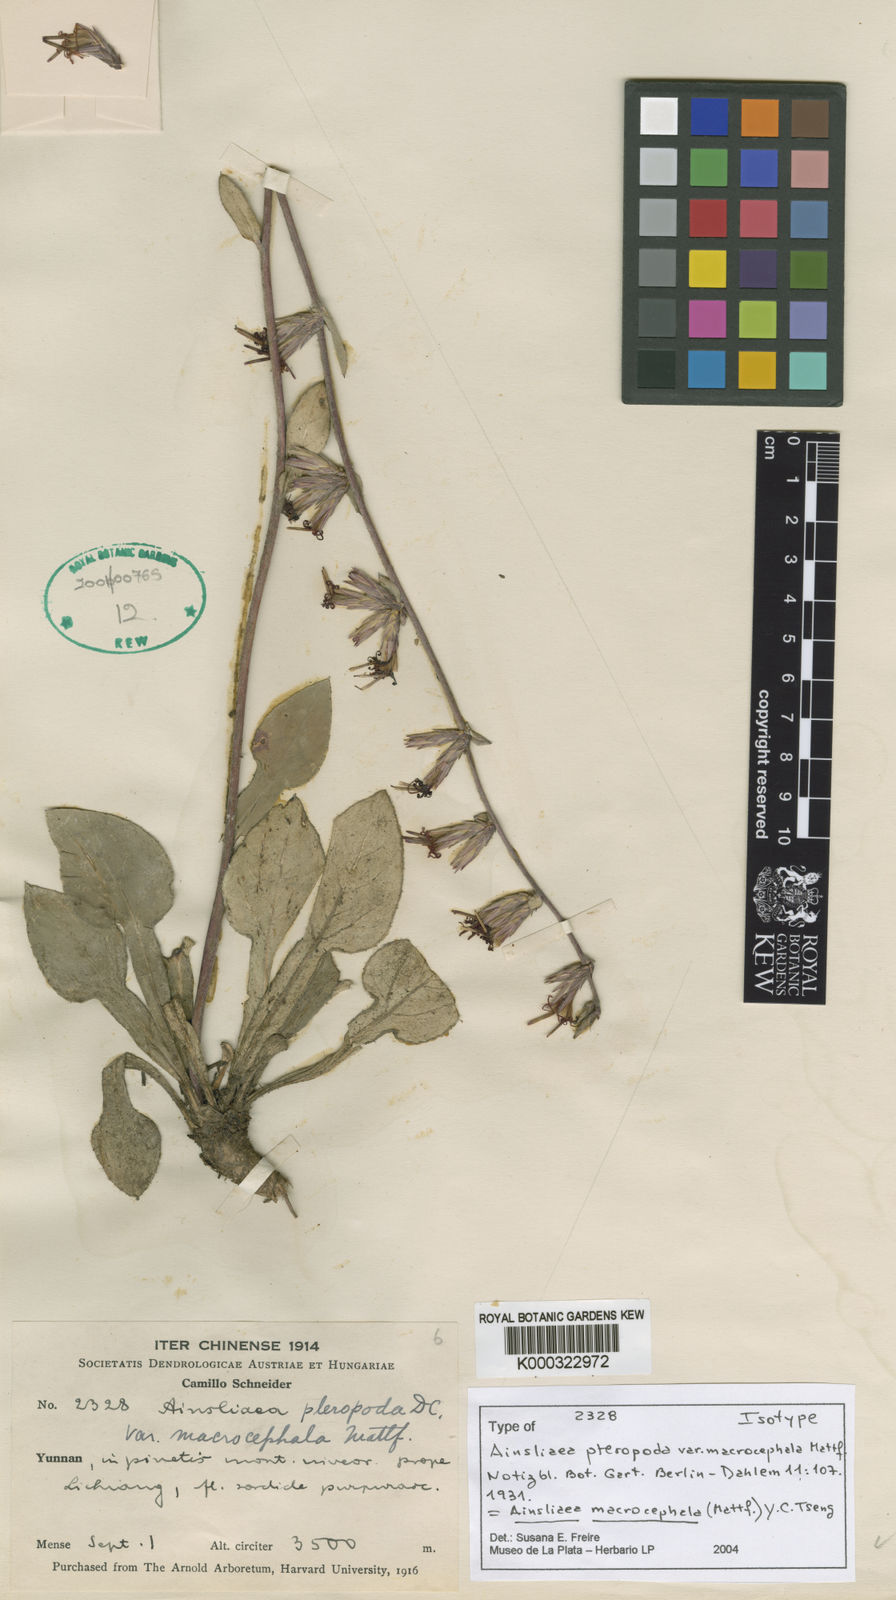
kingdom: Plantae
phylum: Tracheophyta
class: Magnoliopsida
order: Asterales
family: Asteraceae
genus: Ainsliaea
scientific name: Ainsliaea macrocephala
